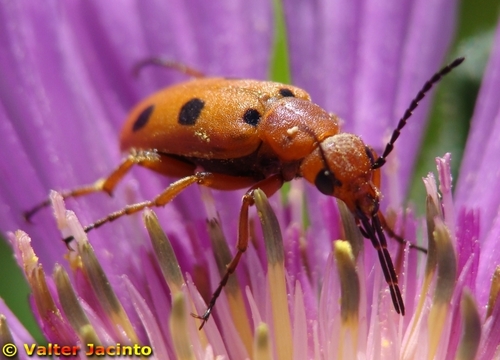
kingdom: Animalia
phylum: Arthropoda
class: Insecta
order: Coleoptera
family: Meloidae
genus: Leptopalpus
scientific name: Leptopalpus rostratus
